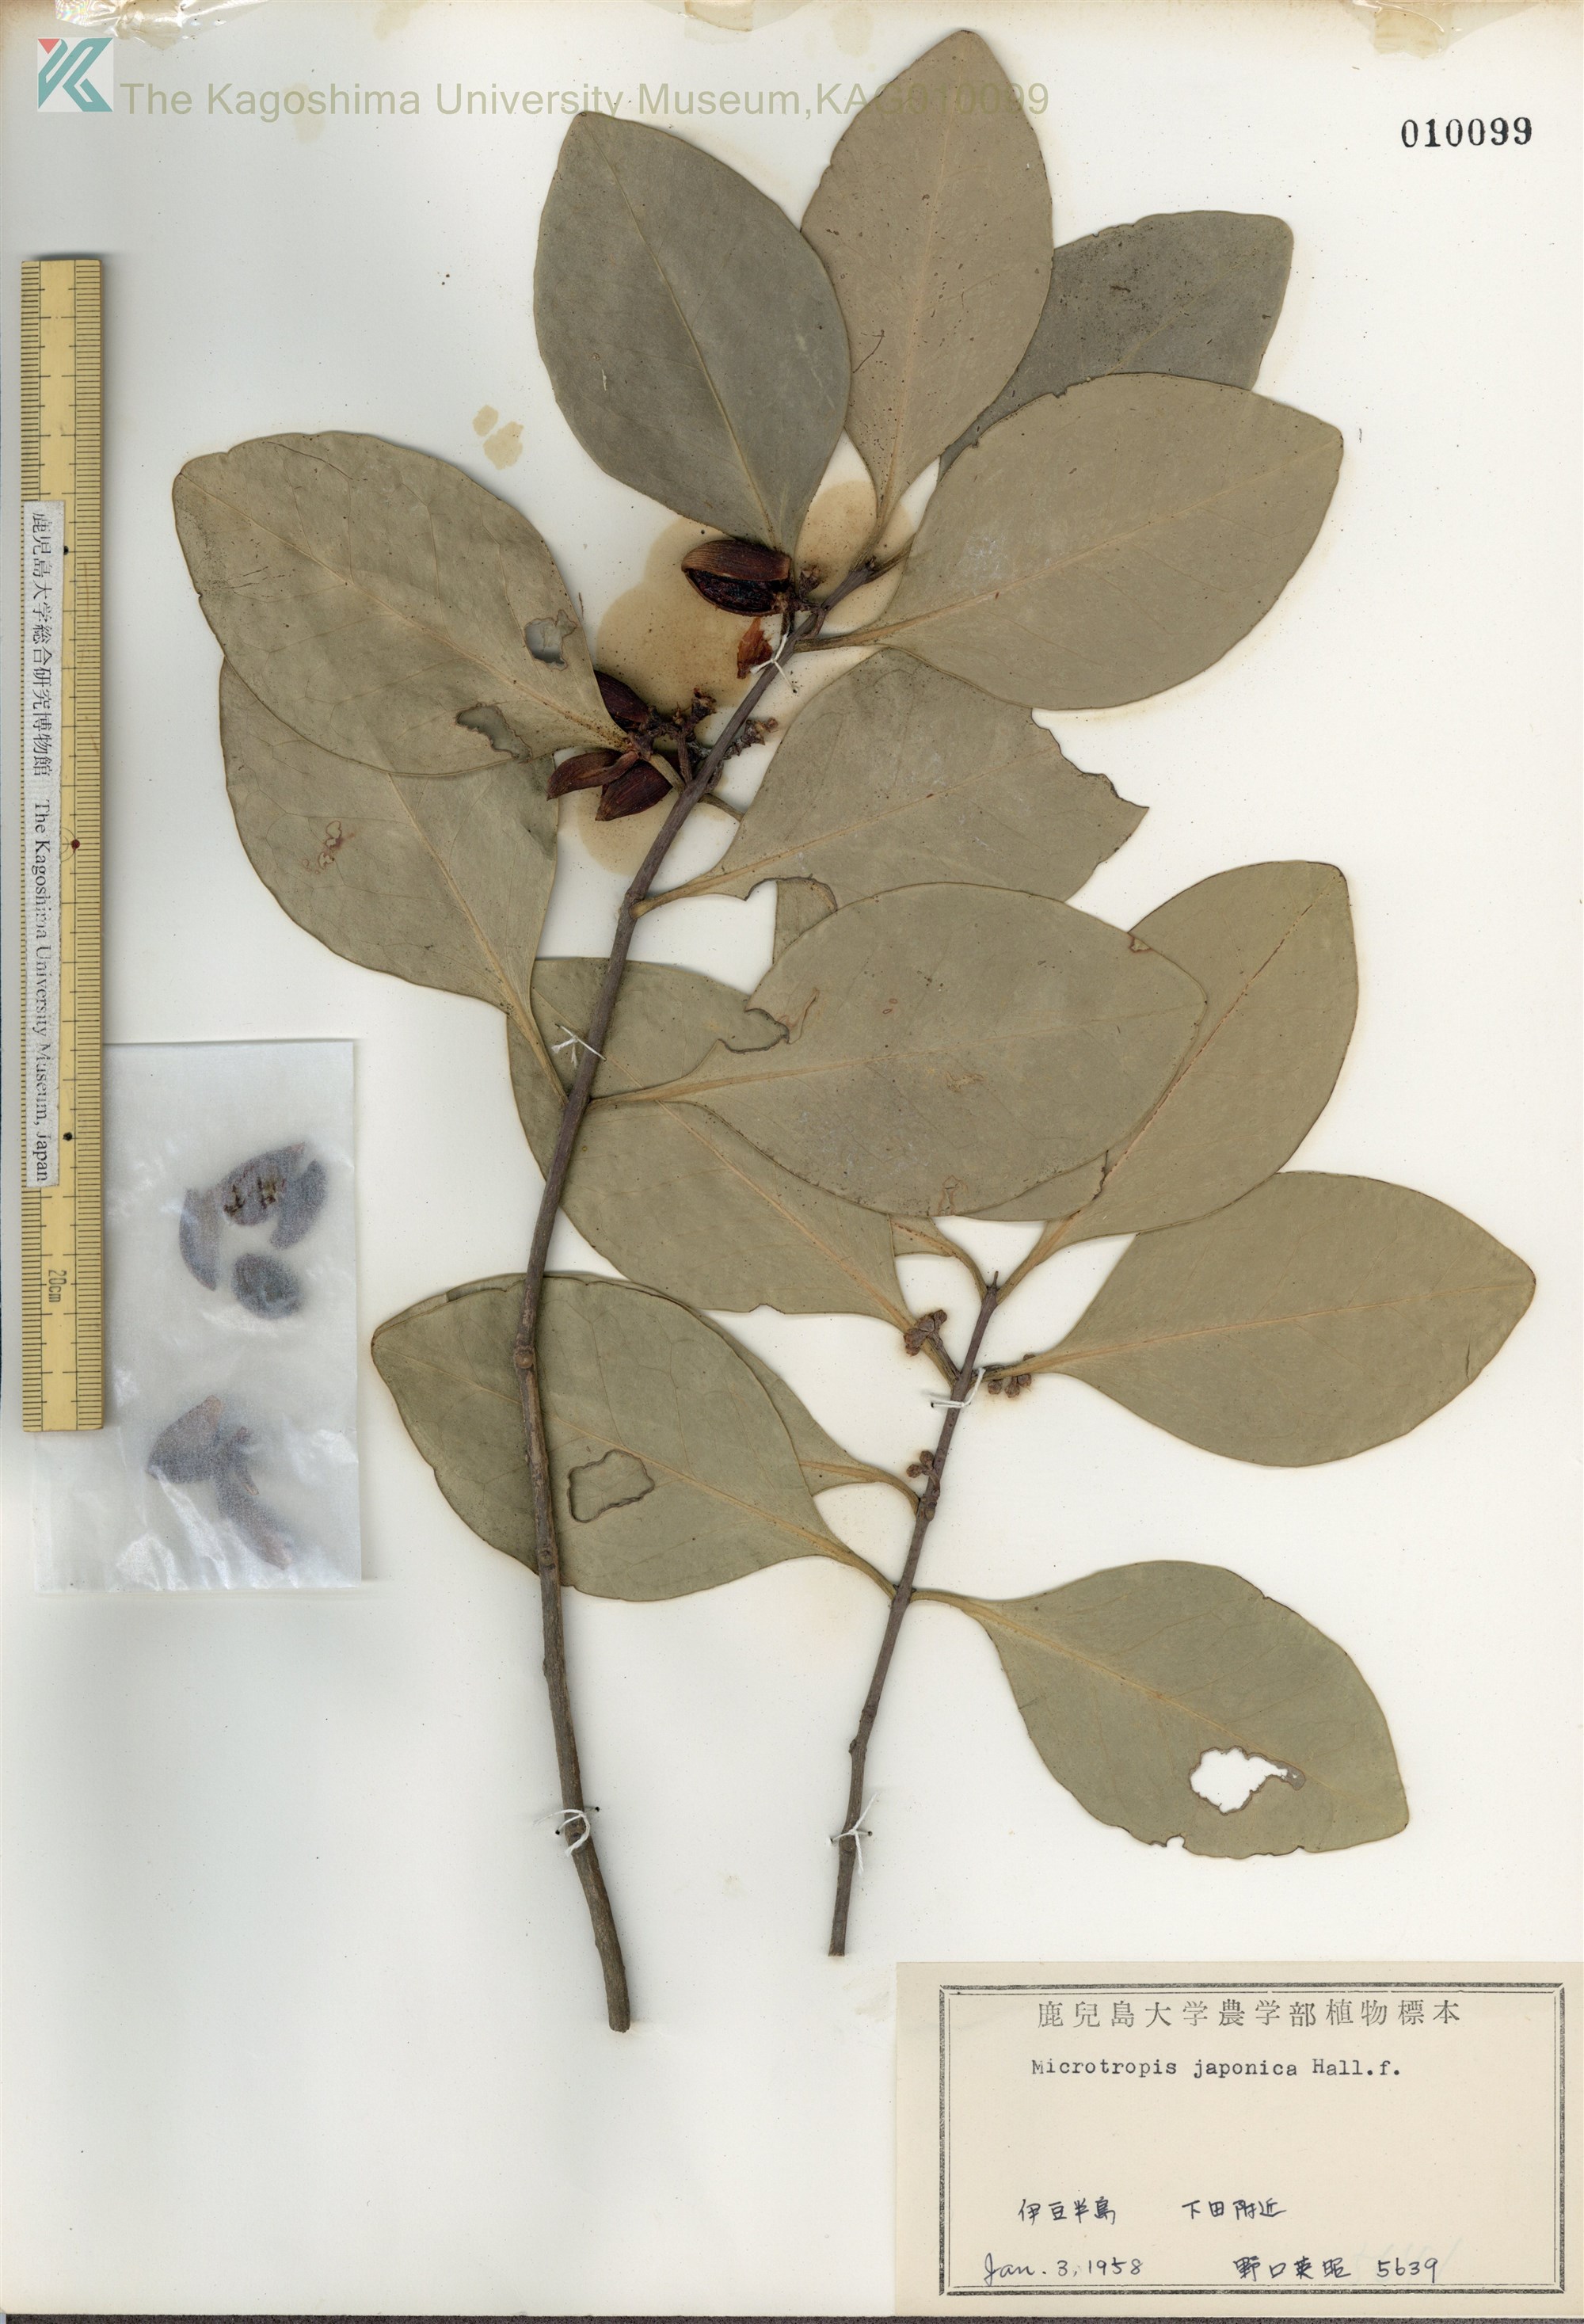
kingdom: Plantae
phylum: Tracheophyta
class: Magnoliopsida
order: Celastrales
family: Celastraceae
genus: Microtropis
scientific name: Microtropis japonica
